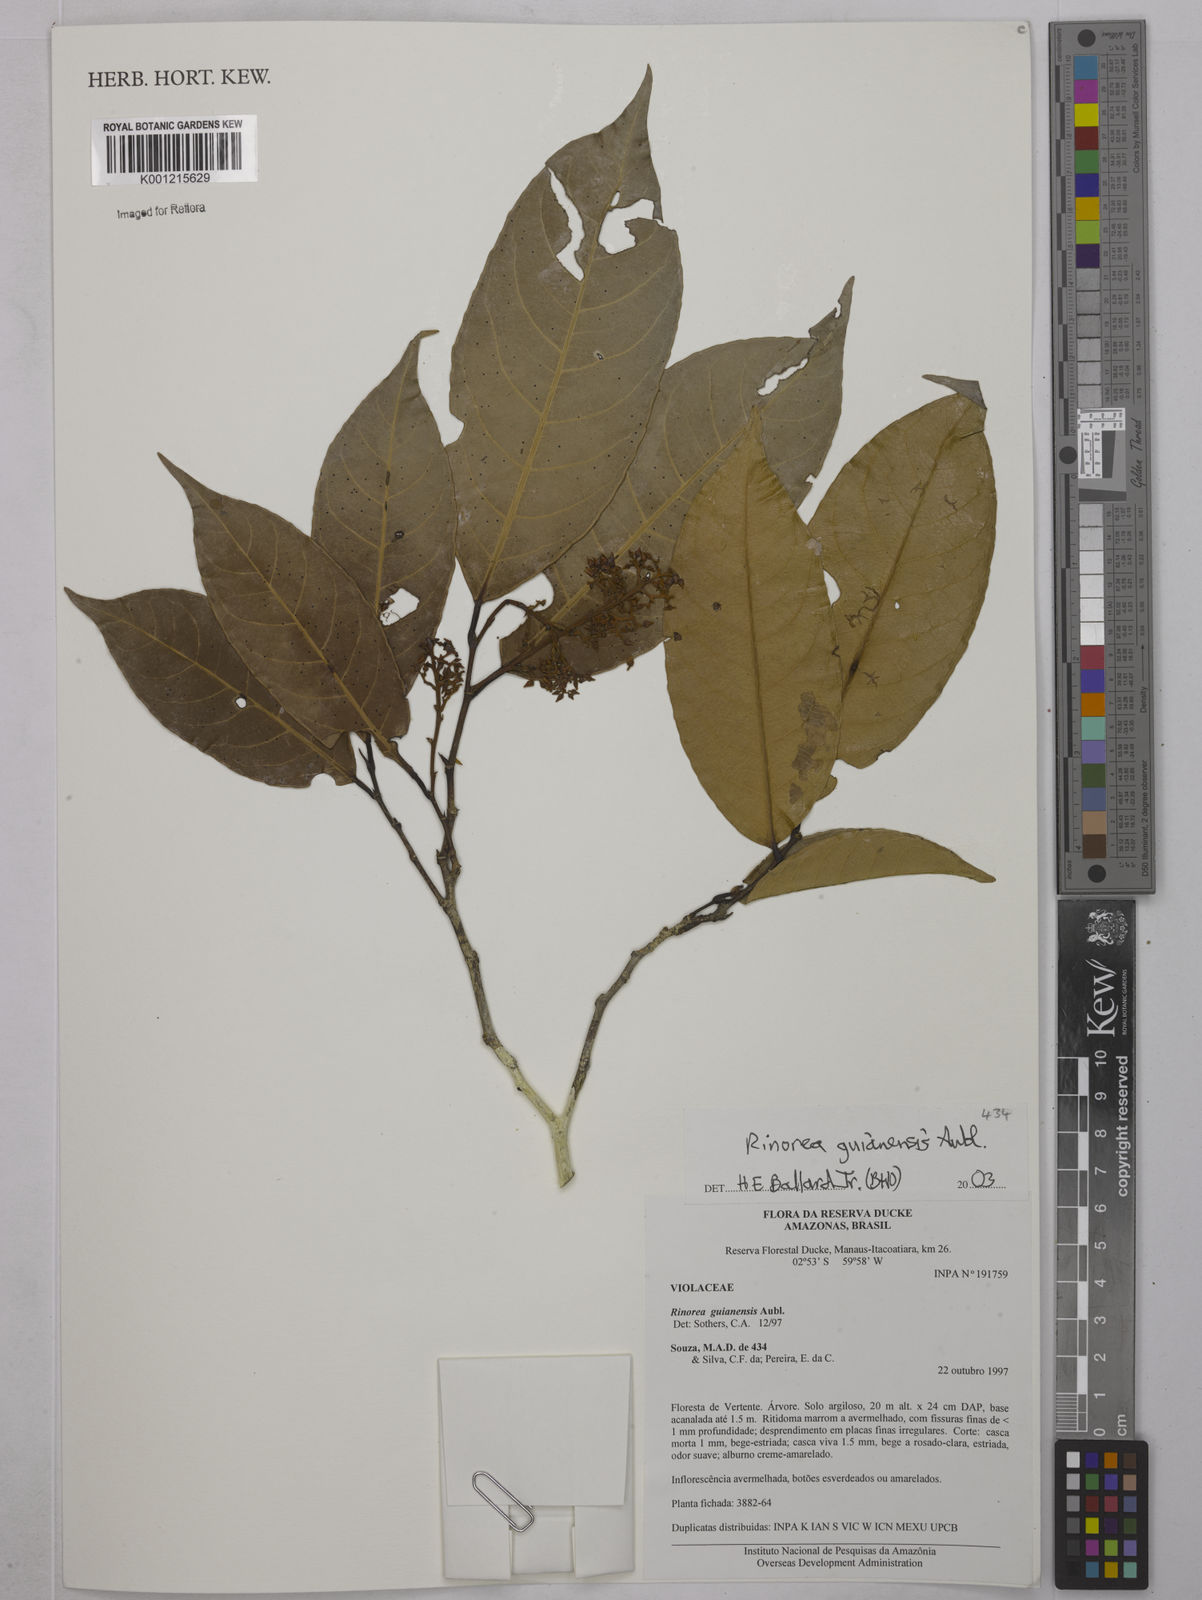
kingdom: Plantae
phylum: Tracheophyta
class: Magnoliopsida
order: Malpighiales
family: Violaceae
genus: Rinorea
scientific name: Rinorea guianensis
